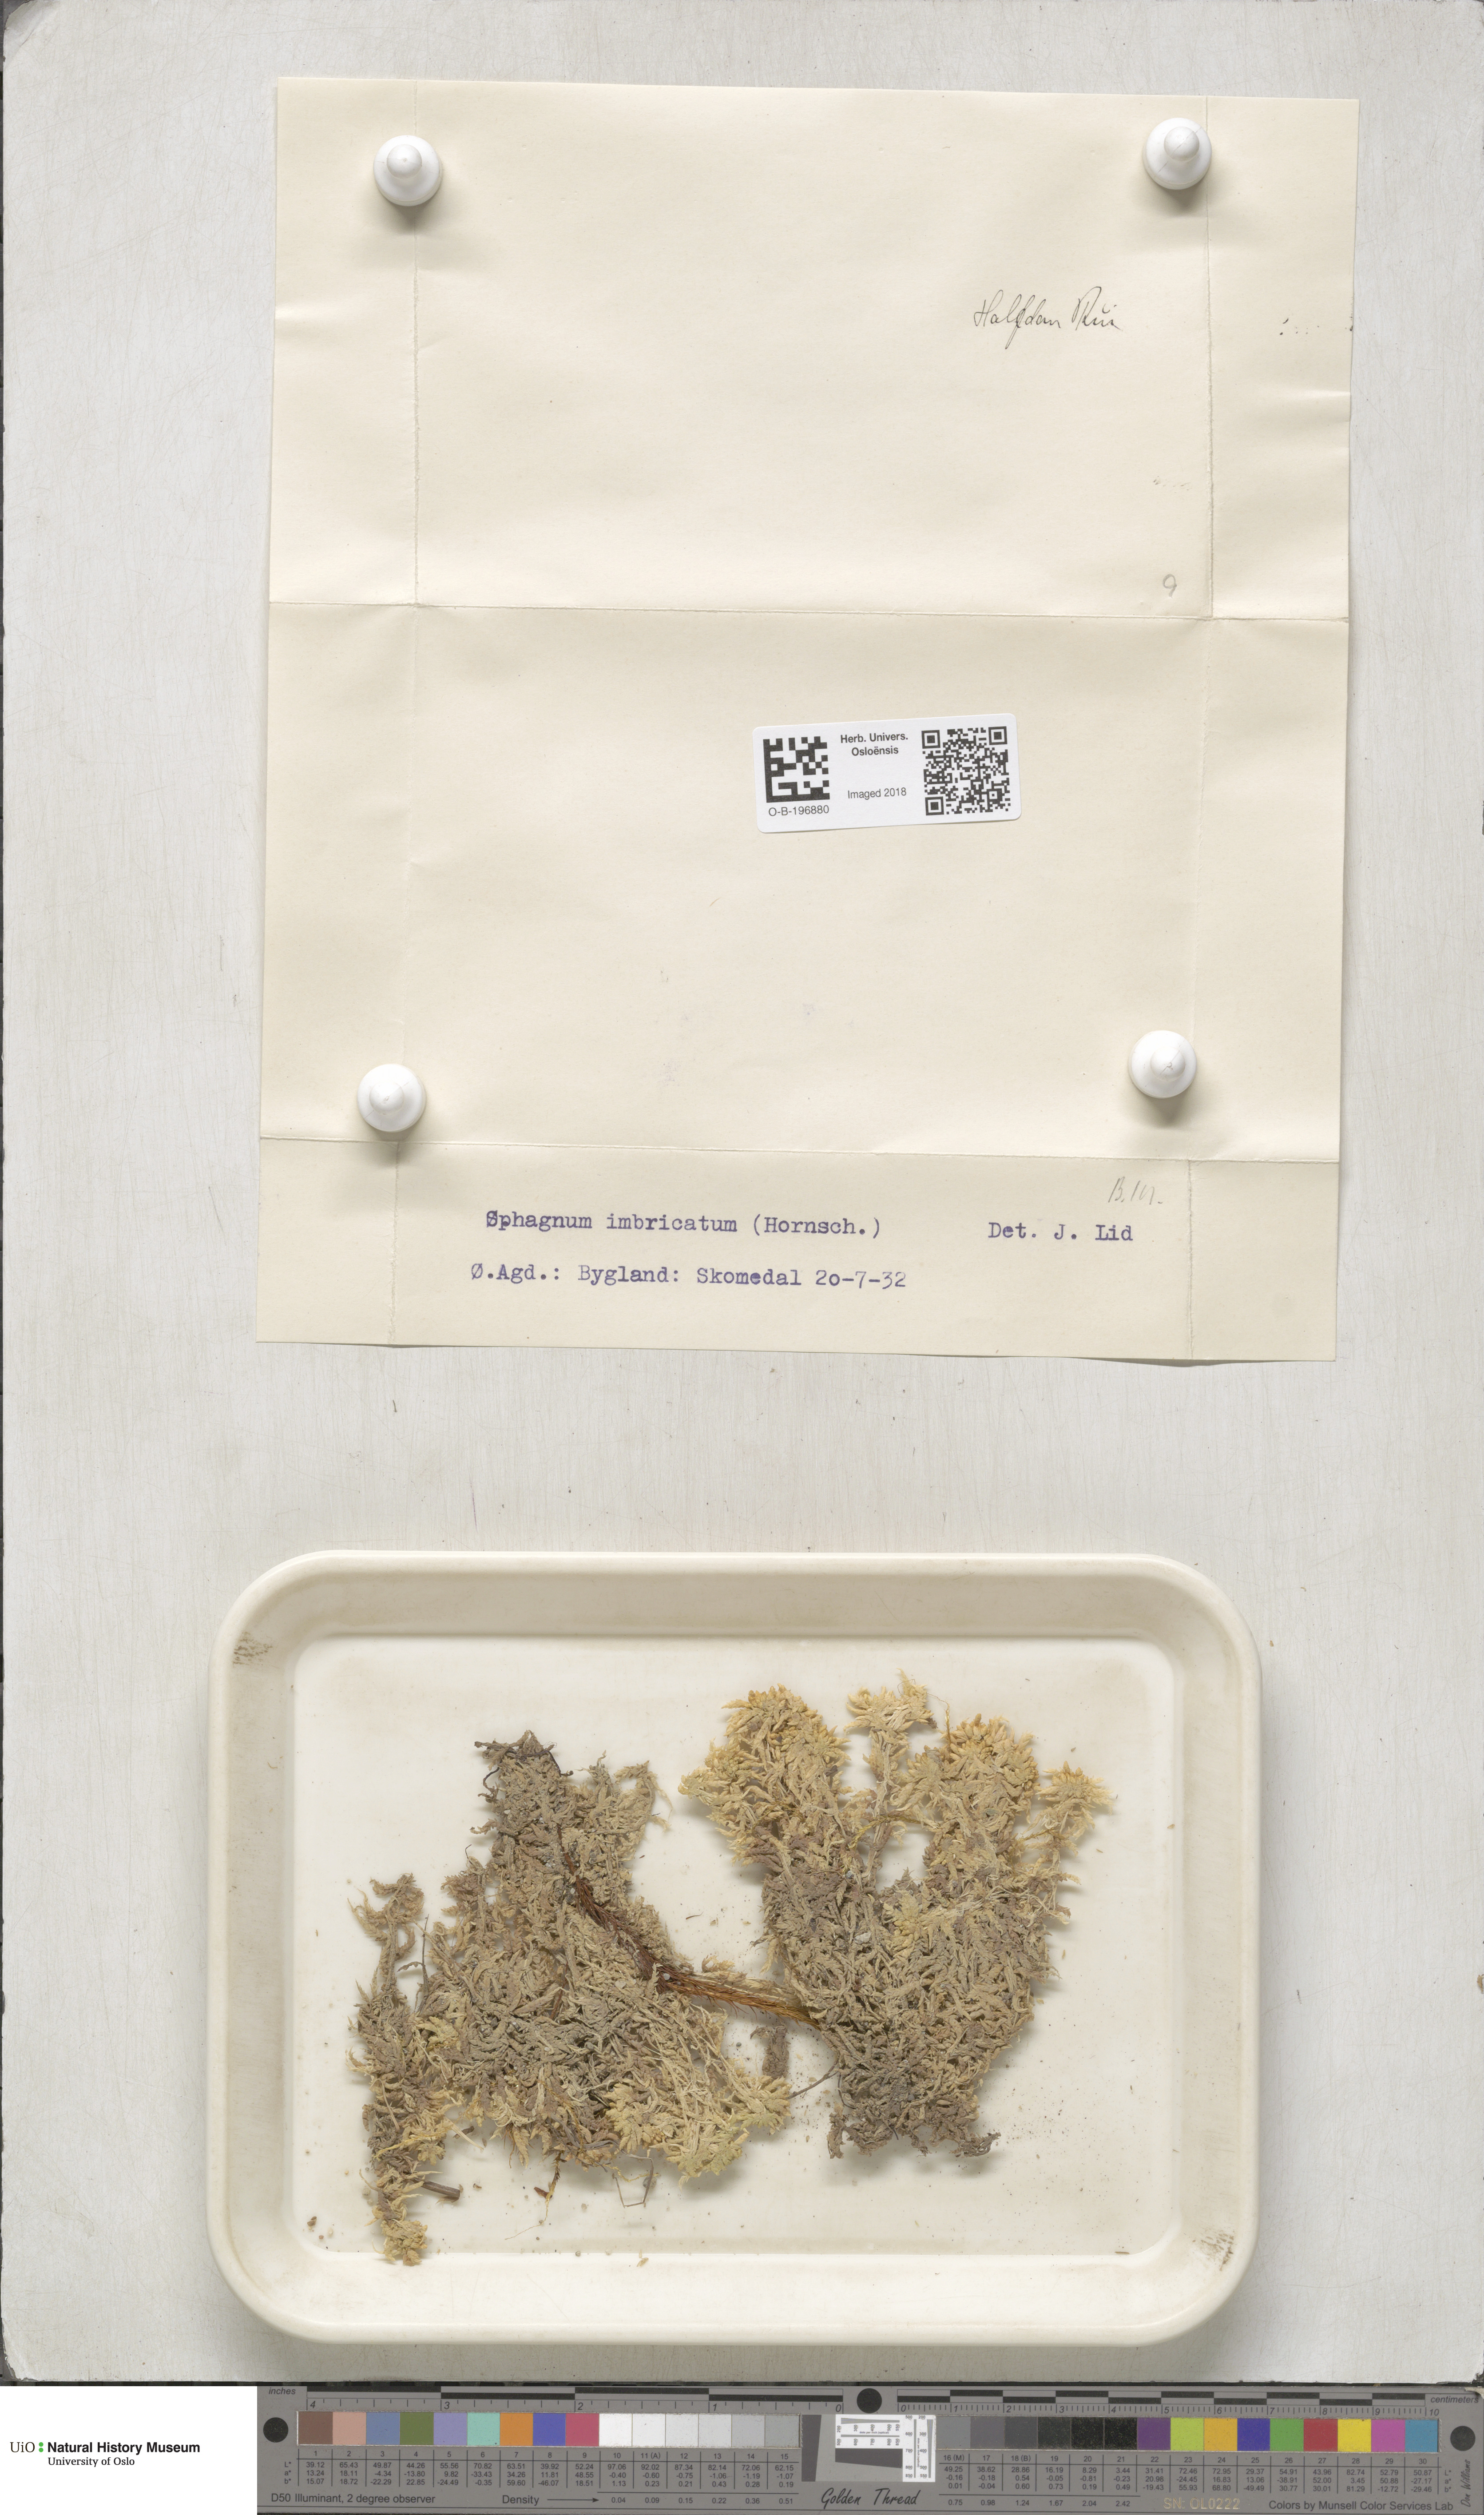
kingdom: Plantae
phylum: Bryophyta
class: Sphagnopsida
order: Sphagnales
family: Sphagnaceae
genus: Sphagnum
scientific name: Sphagnum affine
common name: Imbricate peat moss
